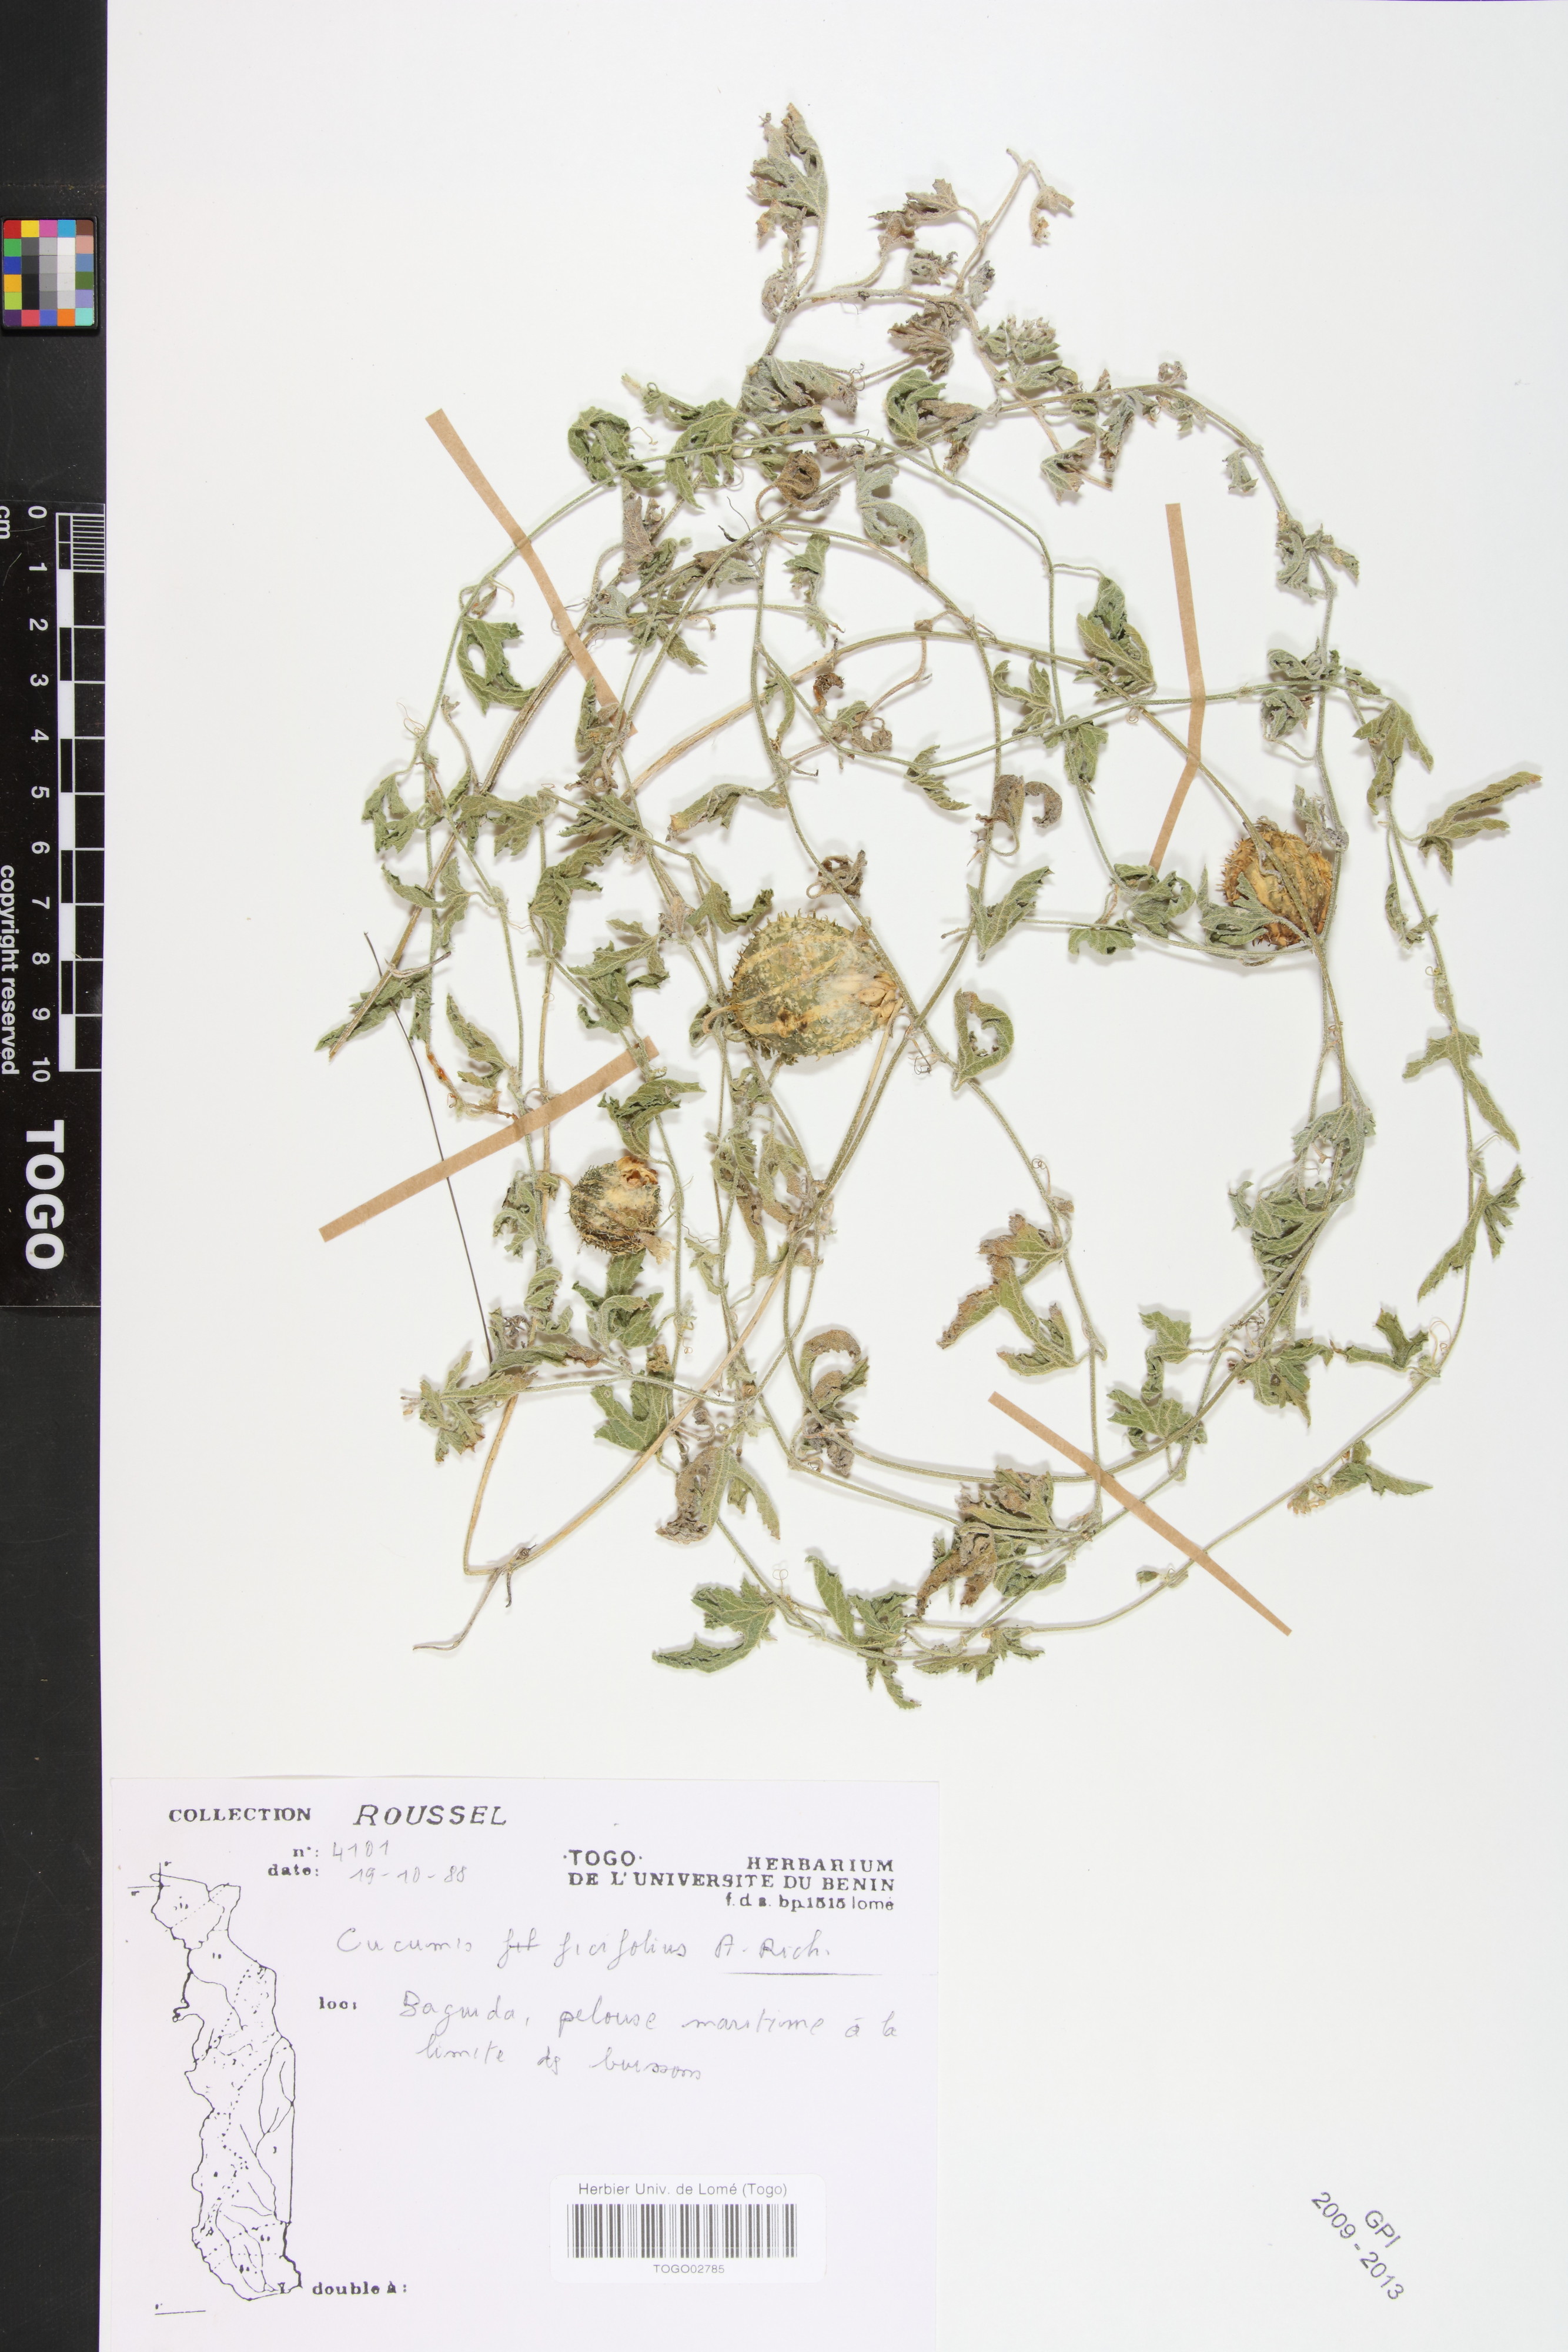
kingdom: Plantae
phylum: Tracheophyta
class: Magnoliopsida
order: Cucurbitales
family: Cucurbitaceae
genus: Cucumis
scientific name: Cucumis ficifolius
